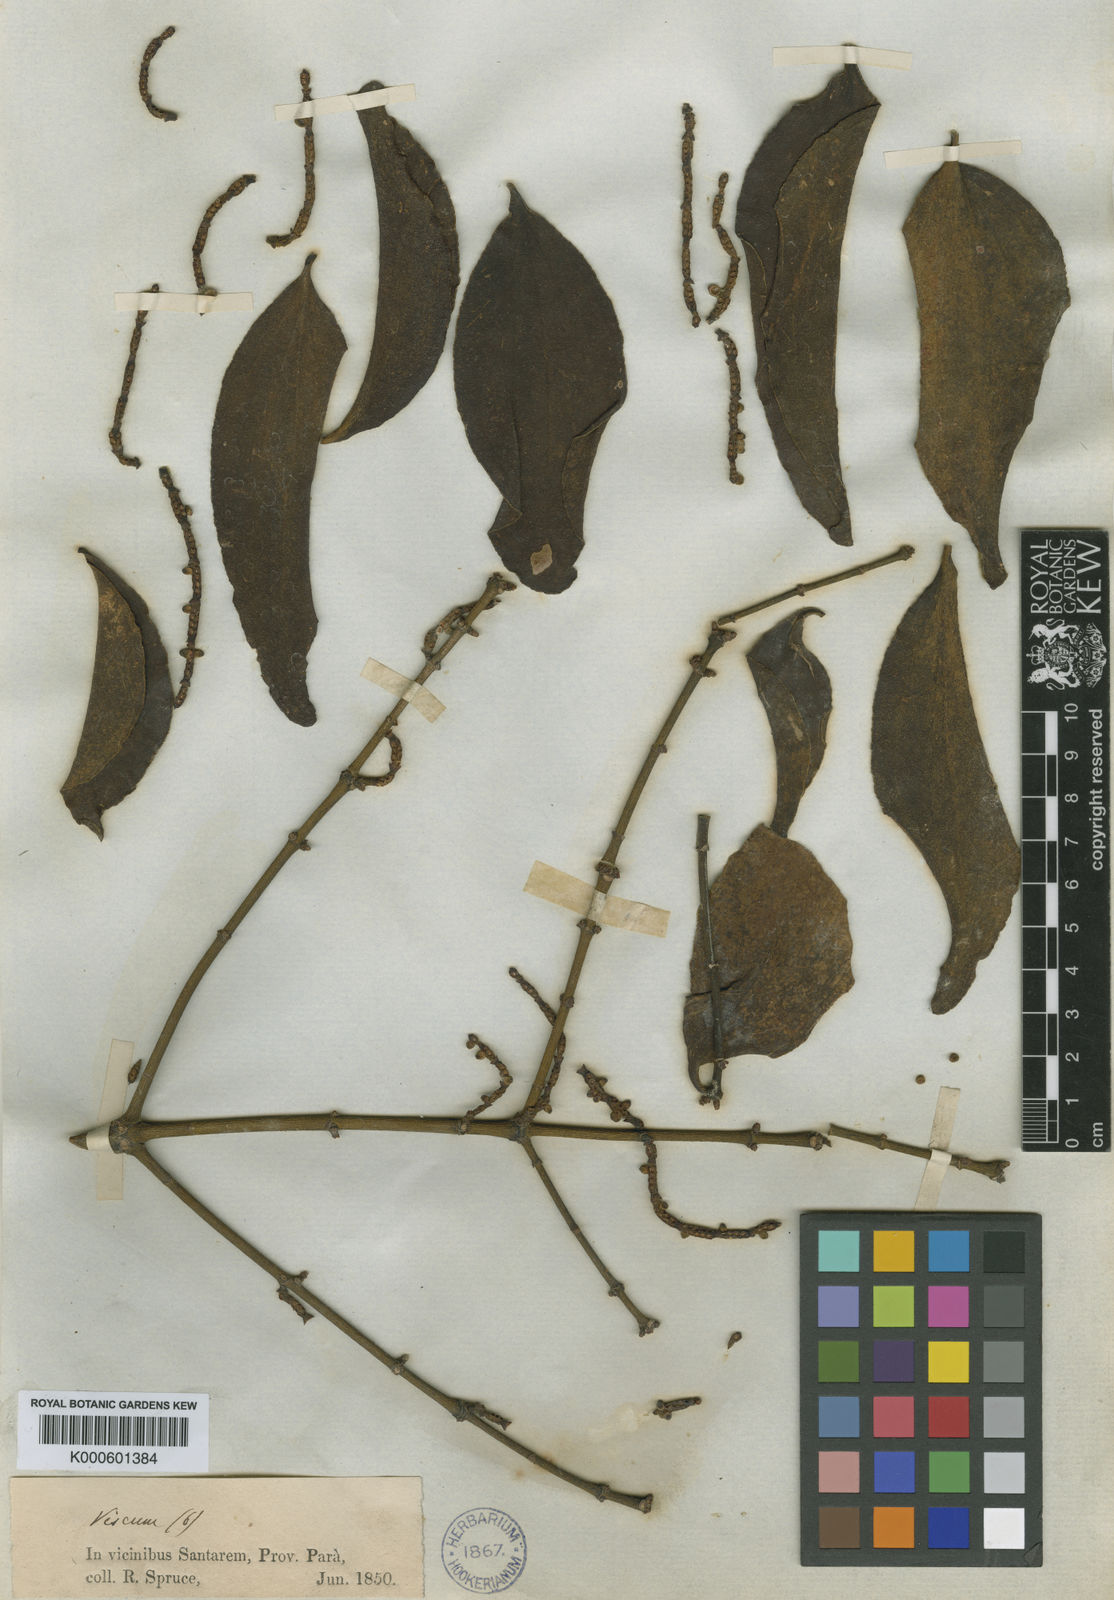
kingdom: Plantae
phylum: Tracheophyta
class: Magnoliopsida
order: Santalales
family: Viscaceae
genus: Phoradendron
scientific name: Phoradendron crassifolium
